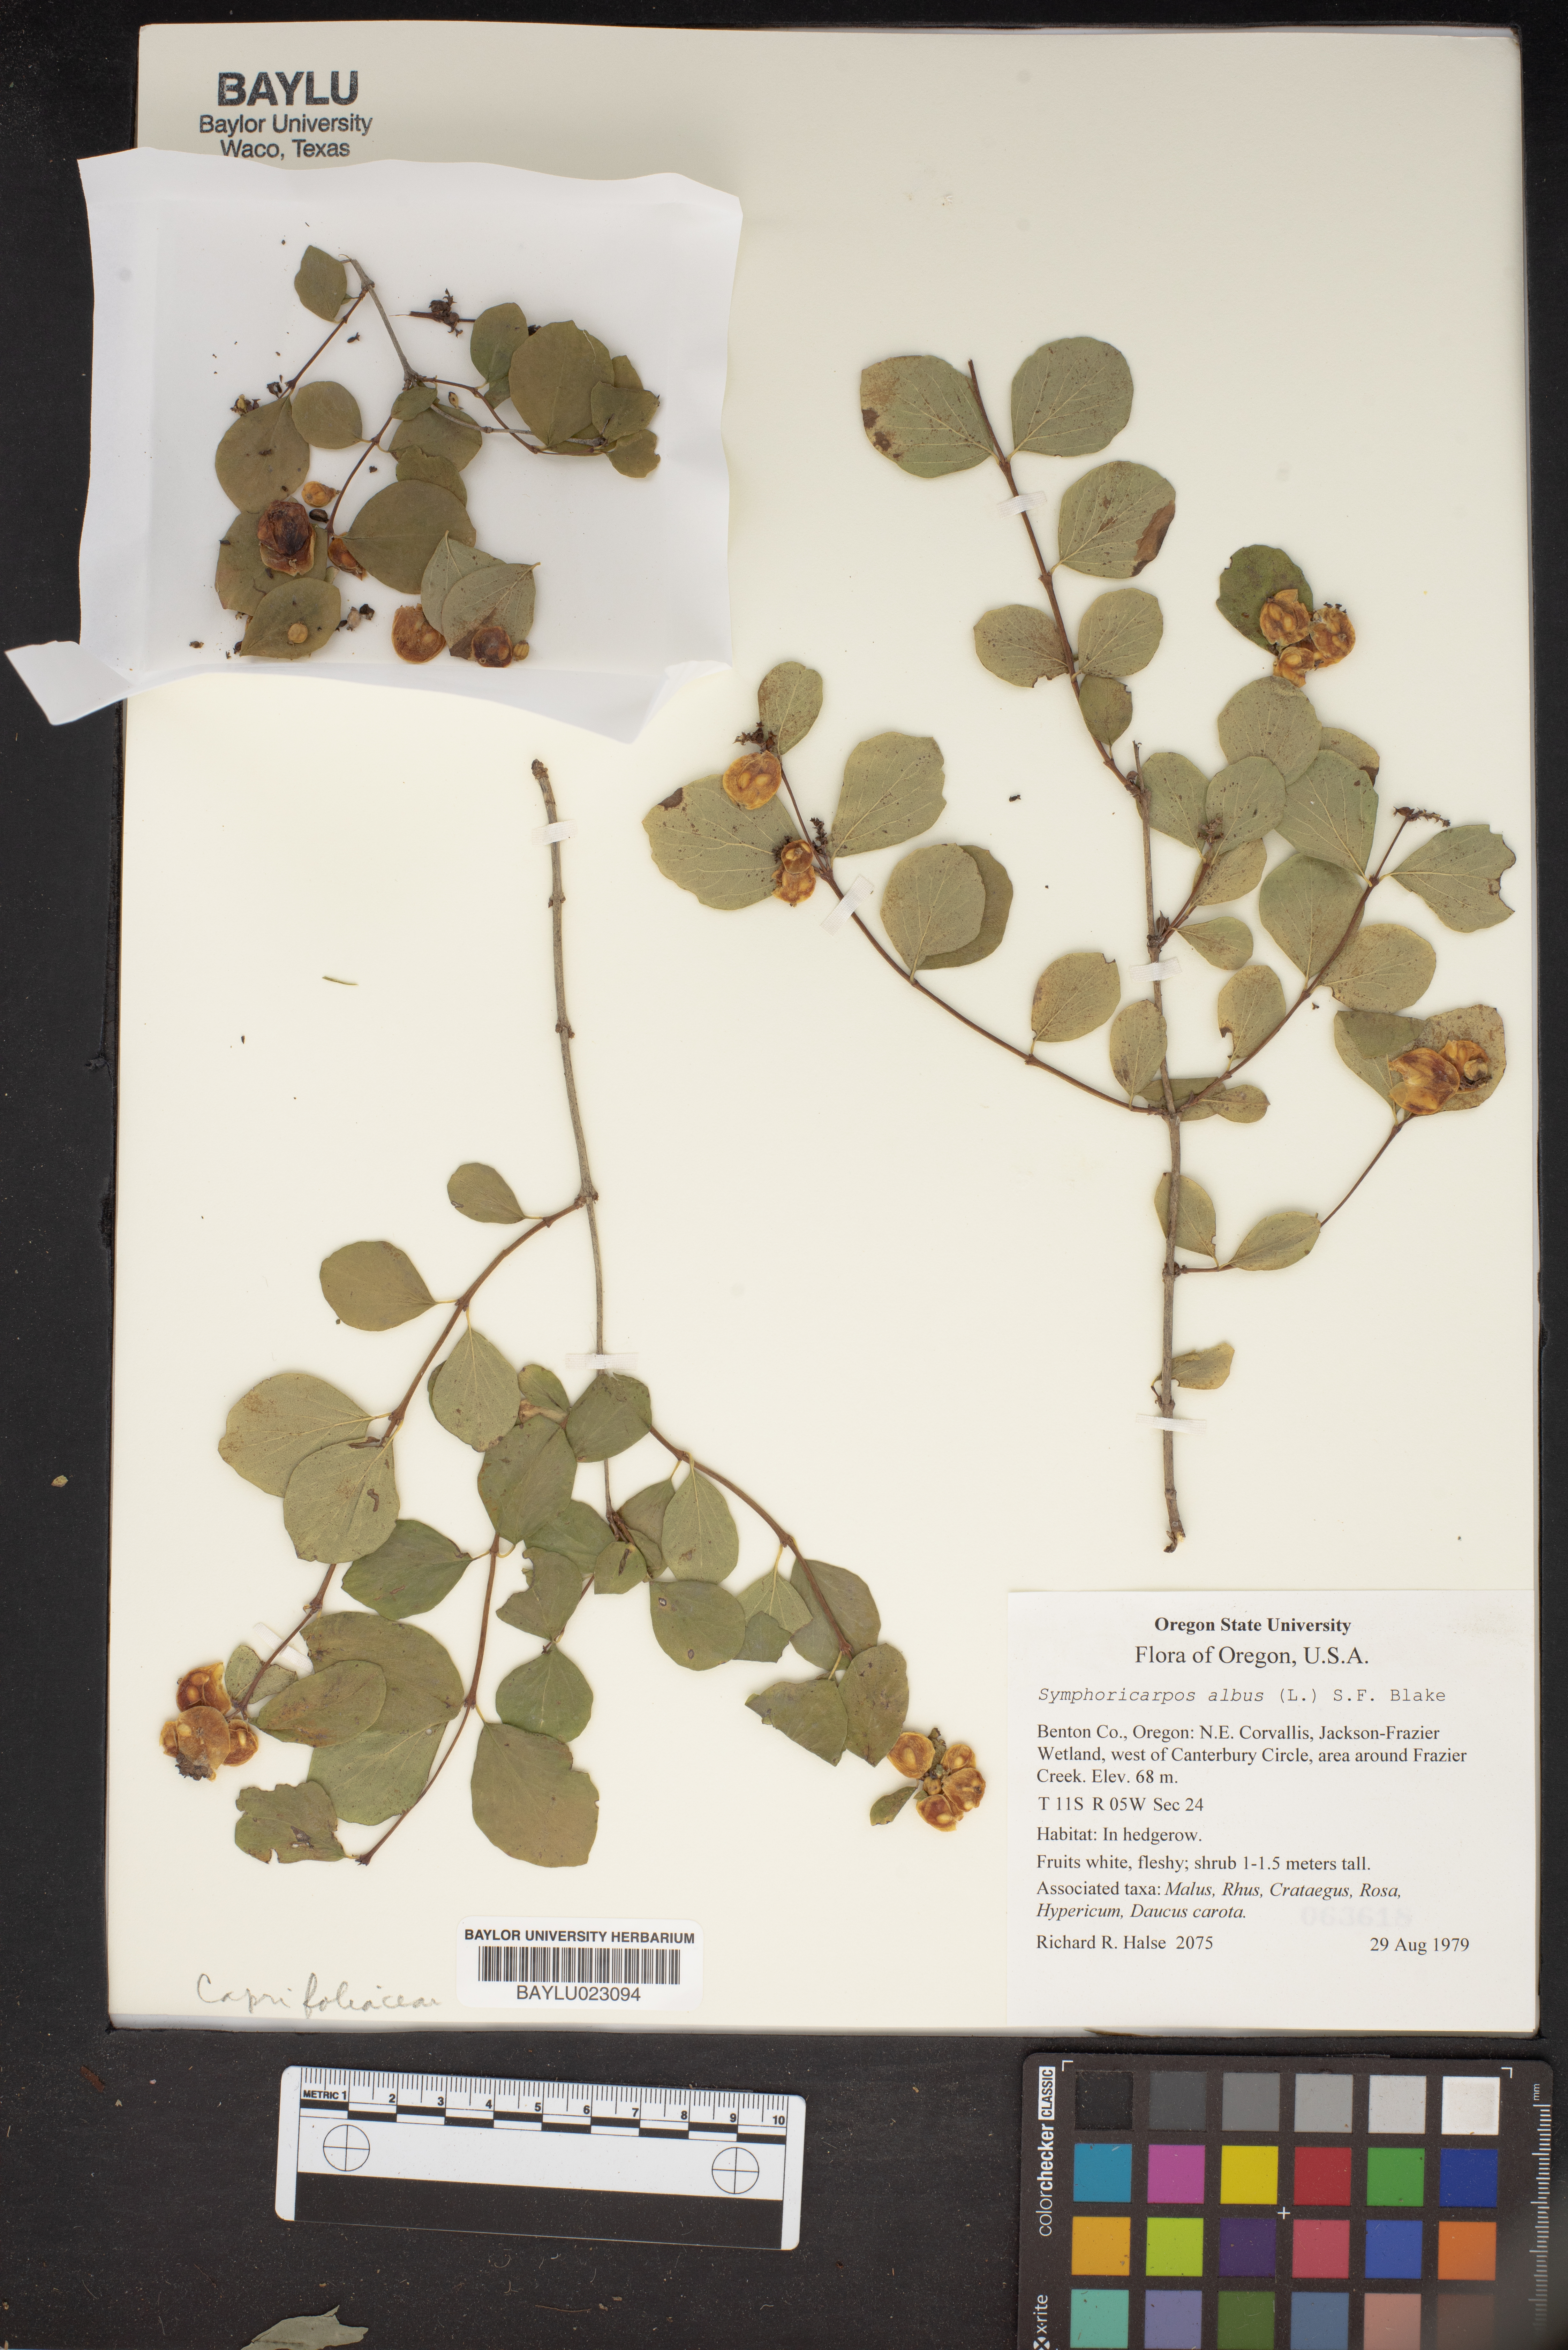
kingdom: Plantae
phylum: Tracheophyta
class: Magnoliopsida
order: Dipsacales
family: Caprifoliaceae
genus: Symphoricarpos
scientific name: Symphoricarpos albus
